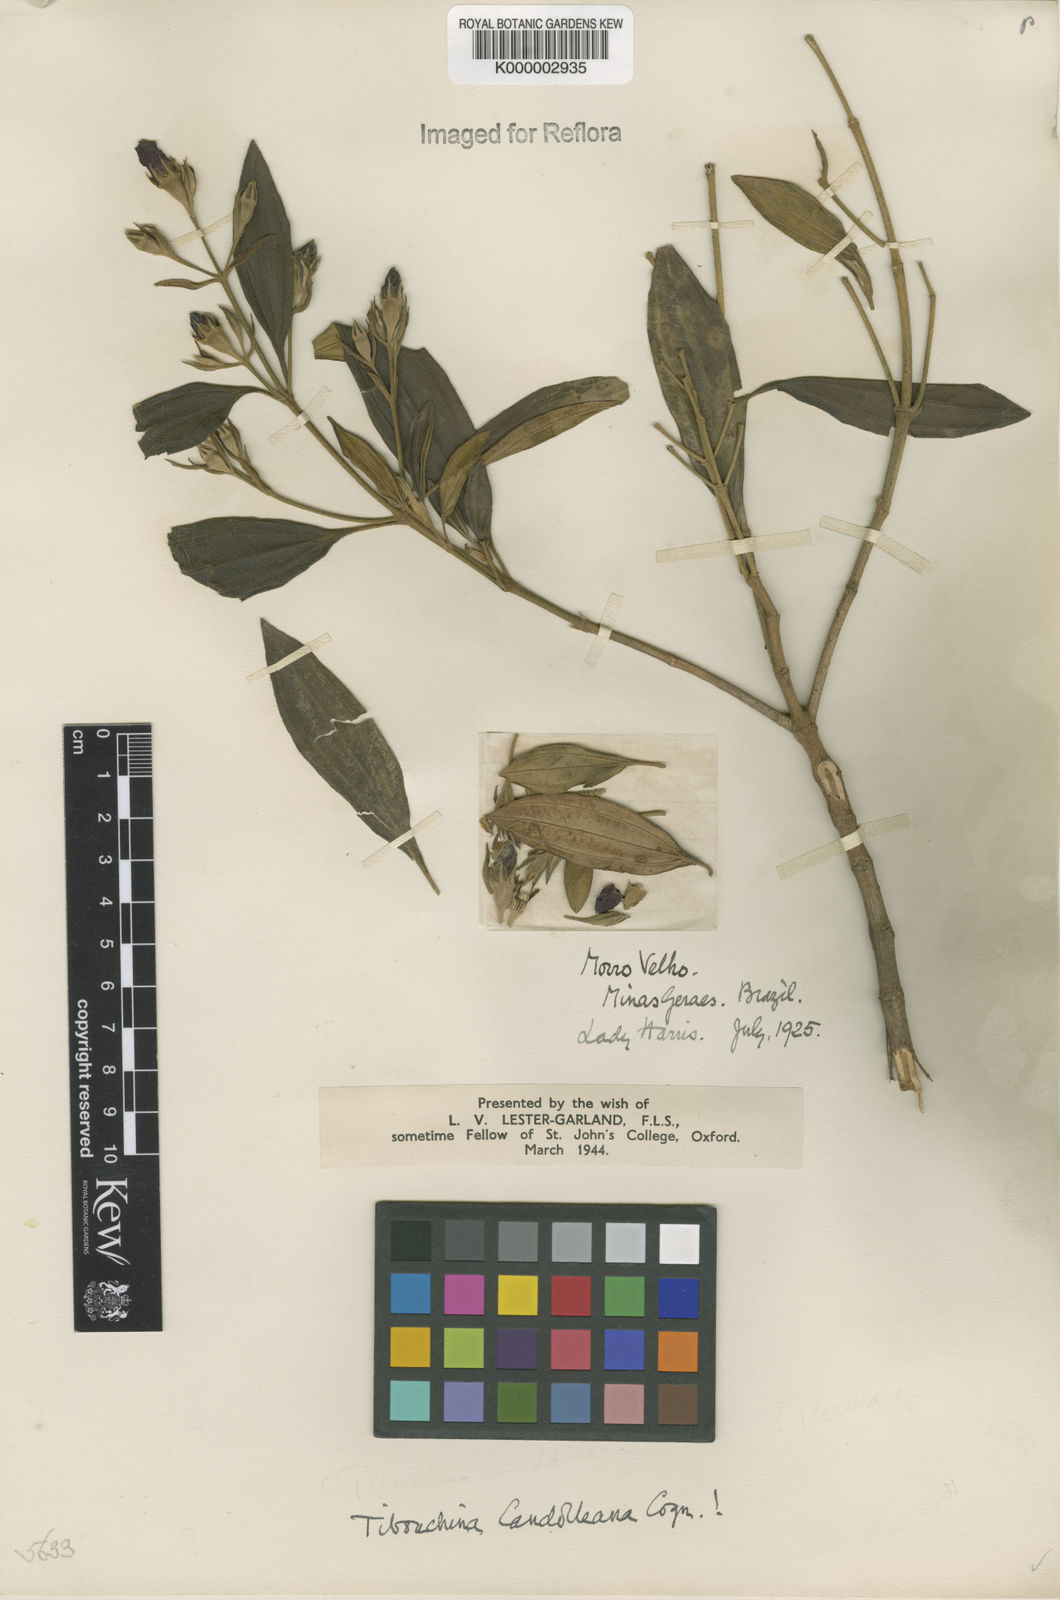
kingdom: Plantae
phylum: Tracheophyta
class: Magnoliopsida
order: Myrtales
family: Melastomataceae
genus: Pleroma
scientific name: Pleroma candolleanum
